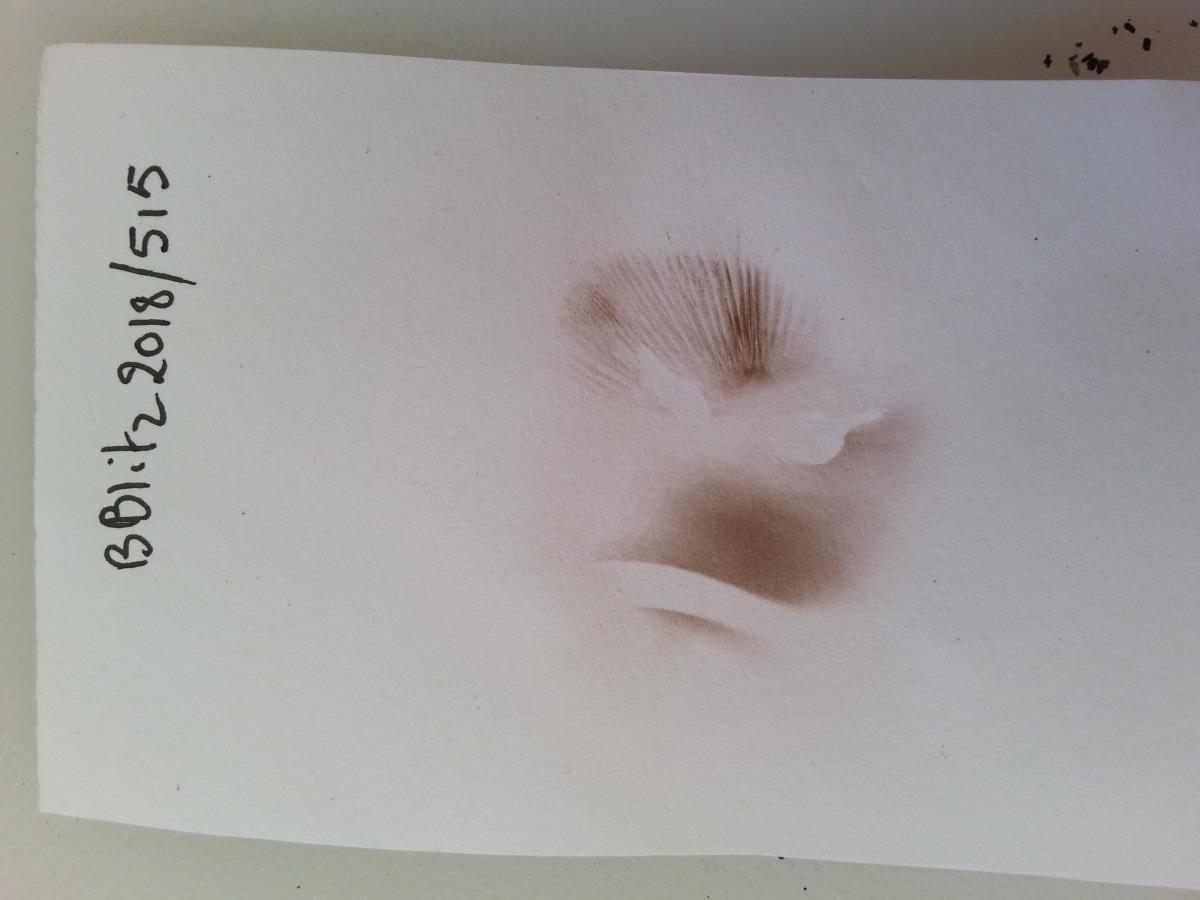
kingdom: Fungi
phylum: Basidiomycota
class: Agaricomycetes
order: Agaricales
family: Psathyrellaceae
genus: Psathyrella
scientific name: Psathyrella
